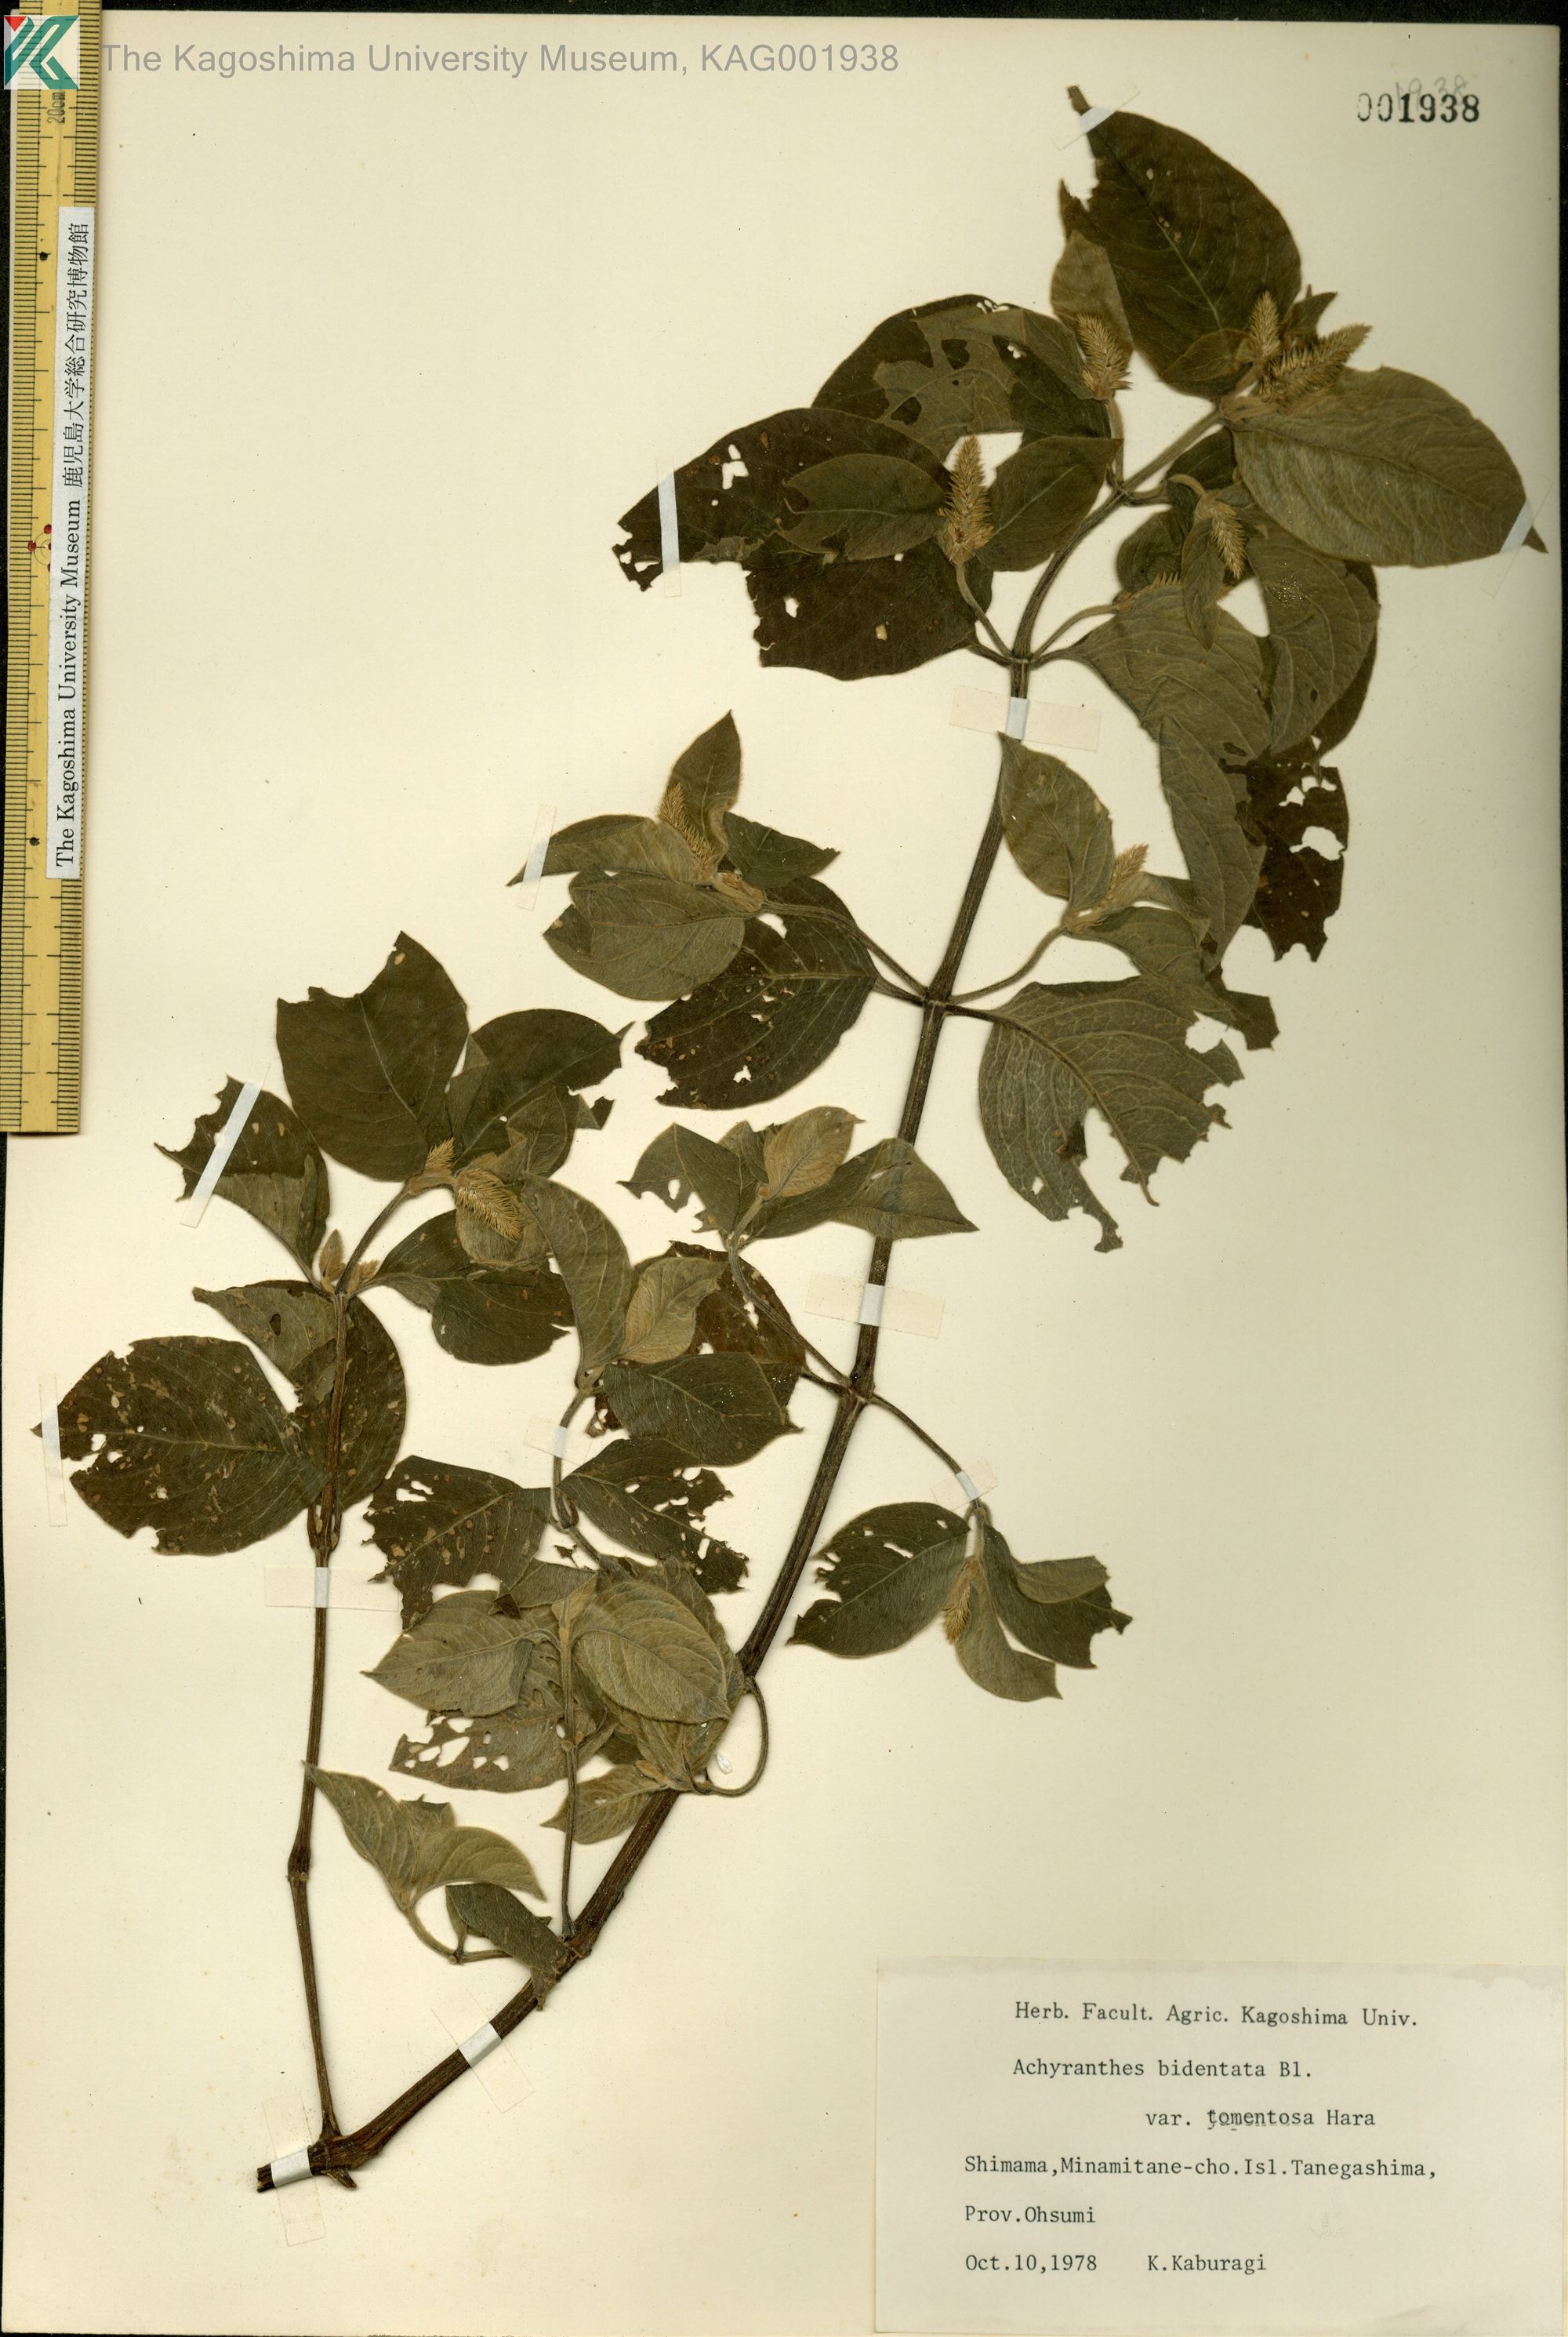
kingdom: Plantae
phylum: Tracheophyta
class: Magnoliopsida
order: Caryophyllales
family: Amaranthaceae
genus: Achyranthes
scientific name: Achyranthes bidentata
